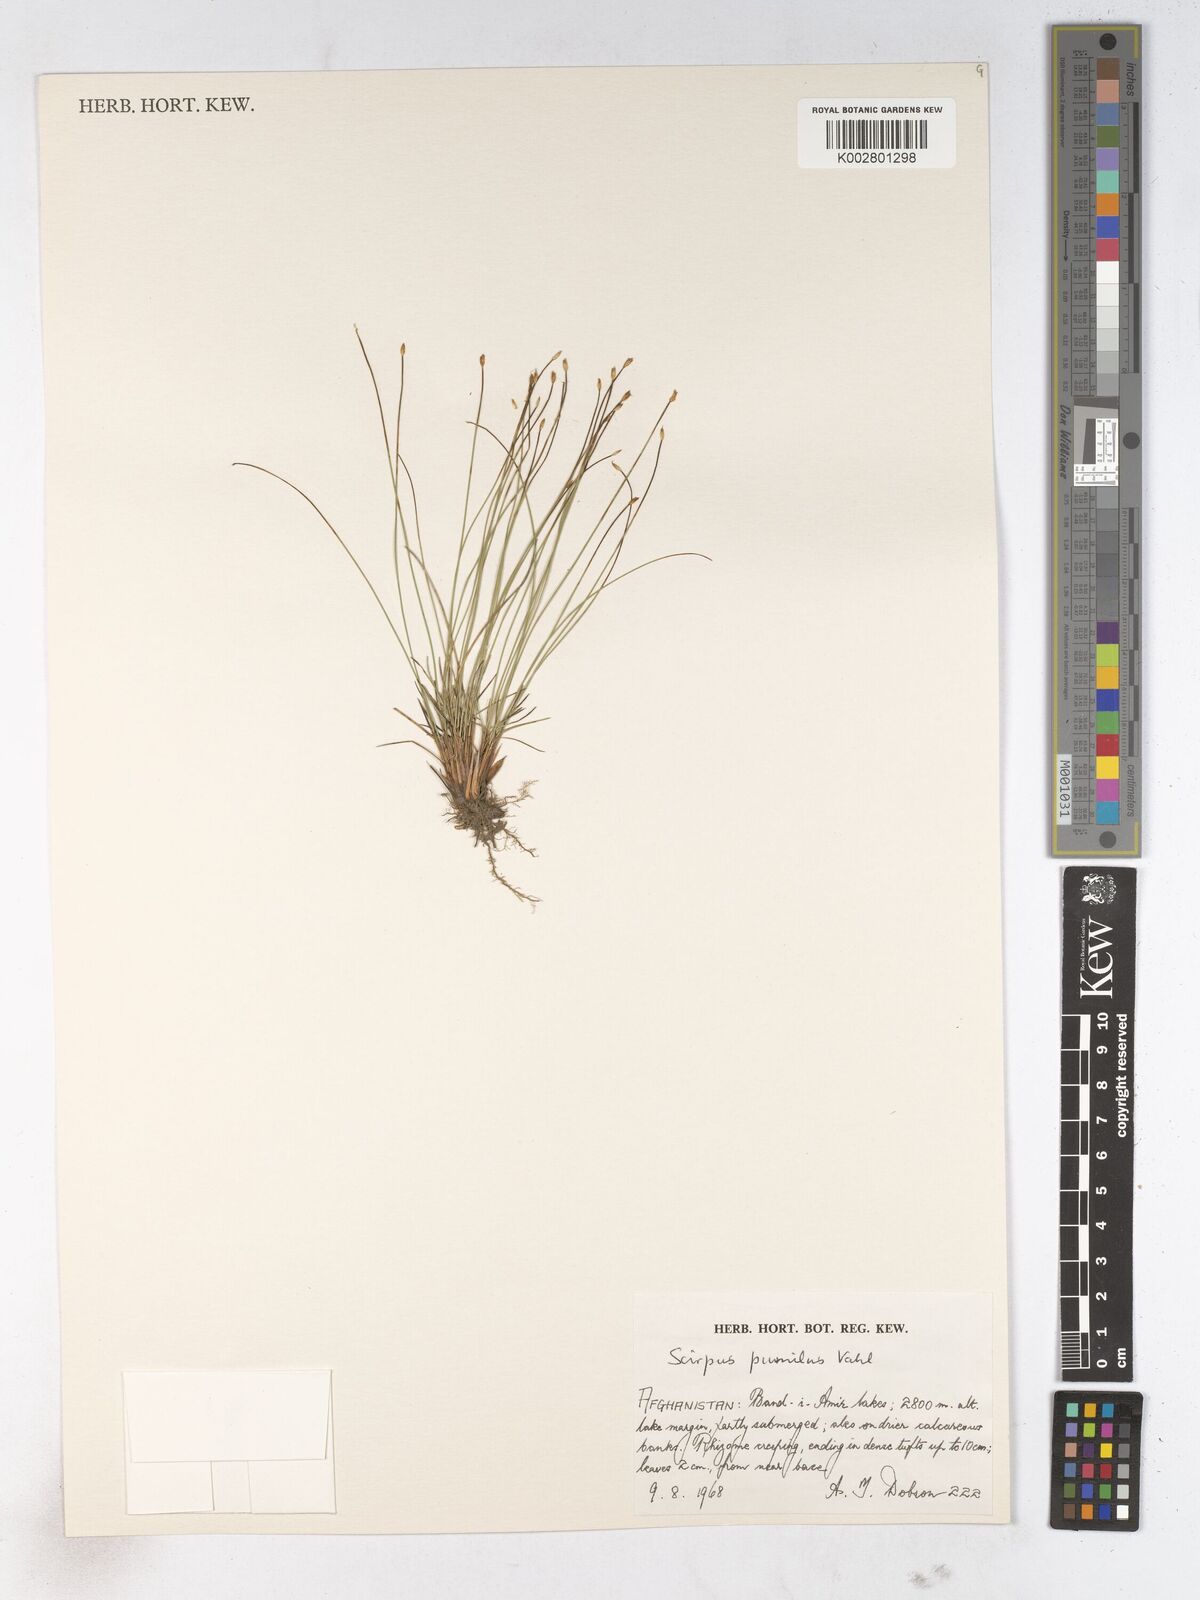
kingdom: Plantae
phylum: Tracheophyta
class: Liliopsida
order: Poales
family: Cyperaceae
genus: Trichophorum
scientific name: Trichophorum pumilum
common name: Rolland's bulrush
